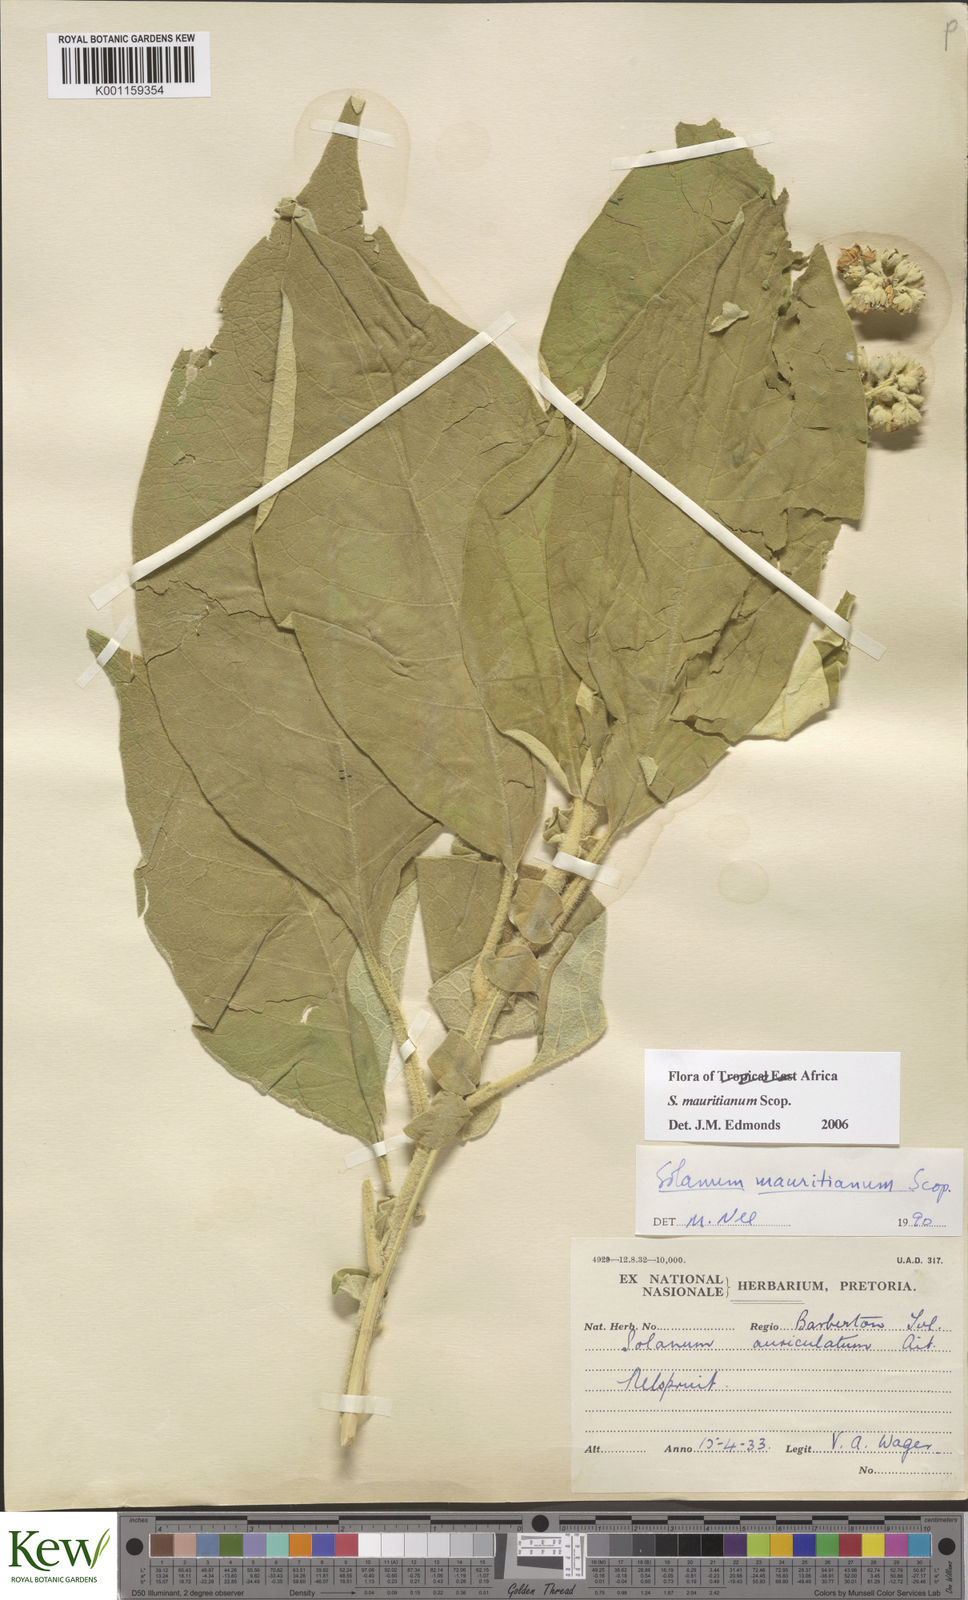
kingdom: Plantae
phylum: Tracheophyta
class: Magnoliopsida
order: Solanales
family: Solanaceae
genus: Solanum
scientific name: Solanum mauritianum
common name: Earleaf nightshade
